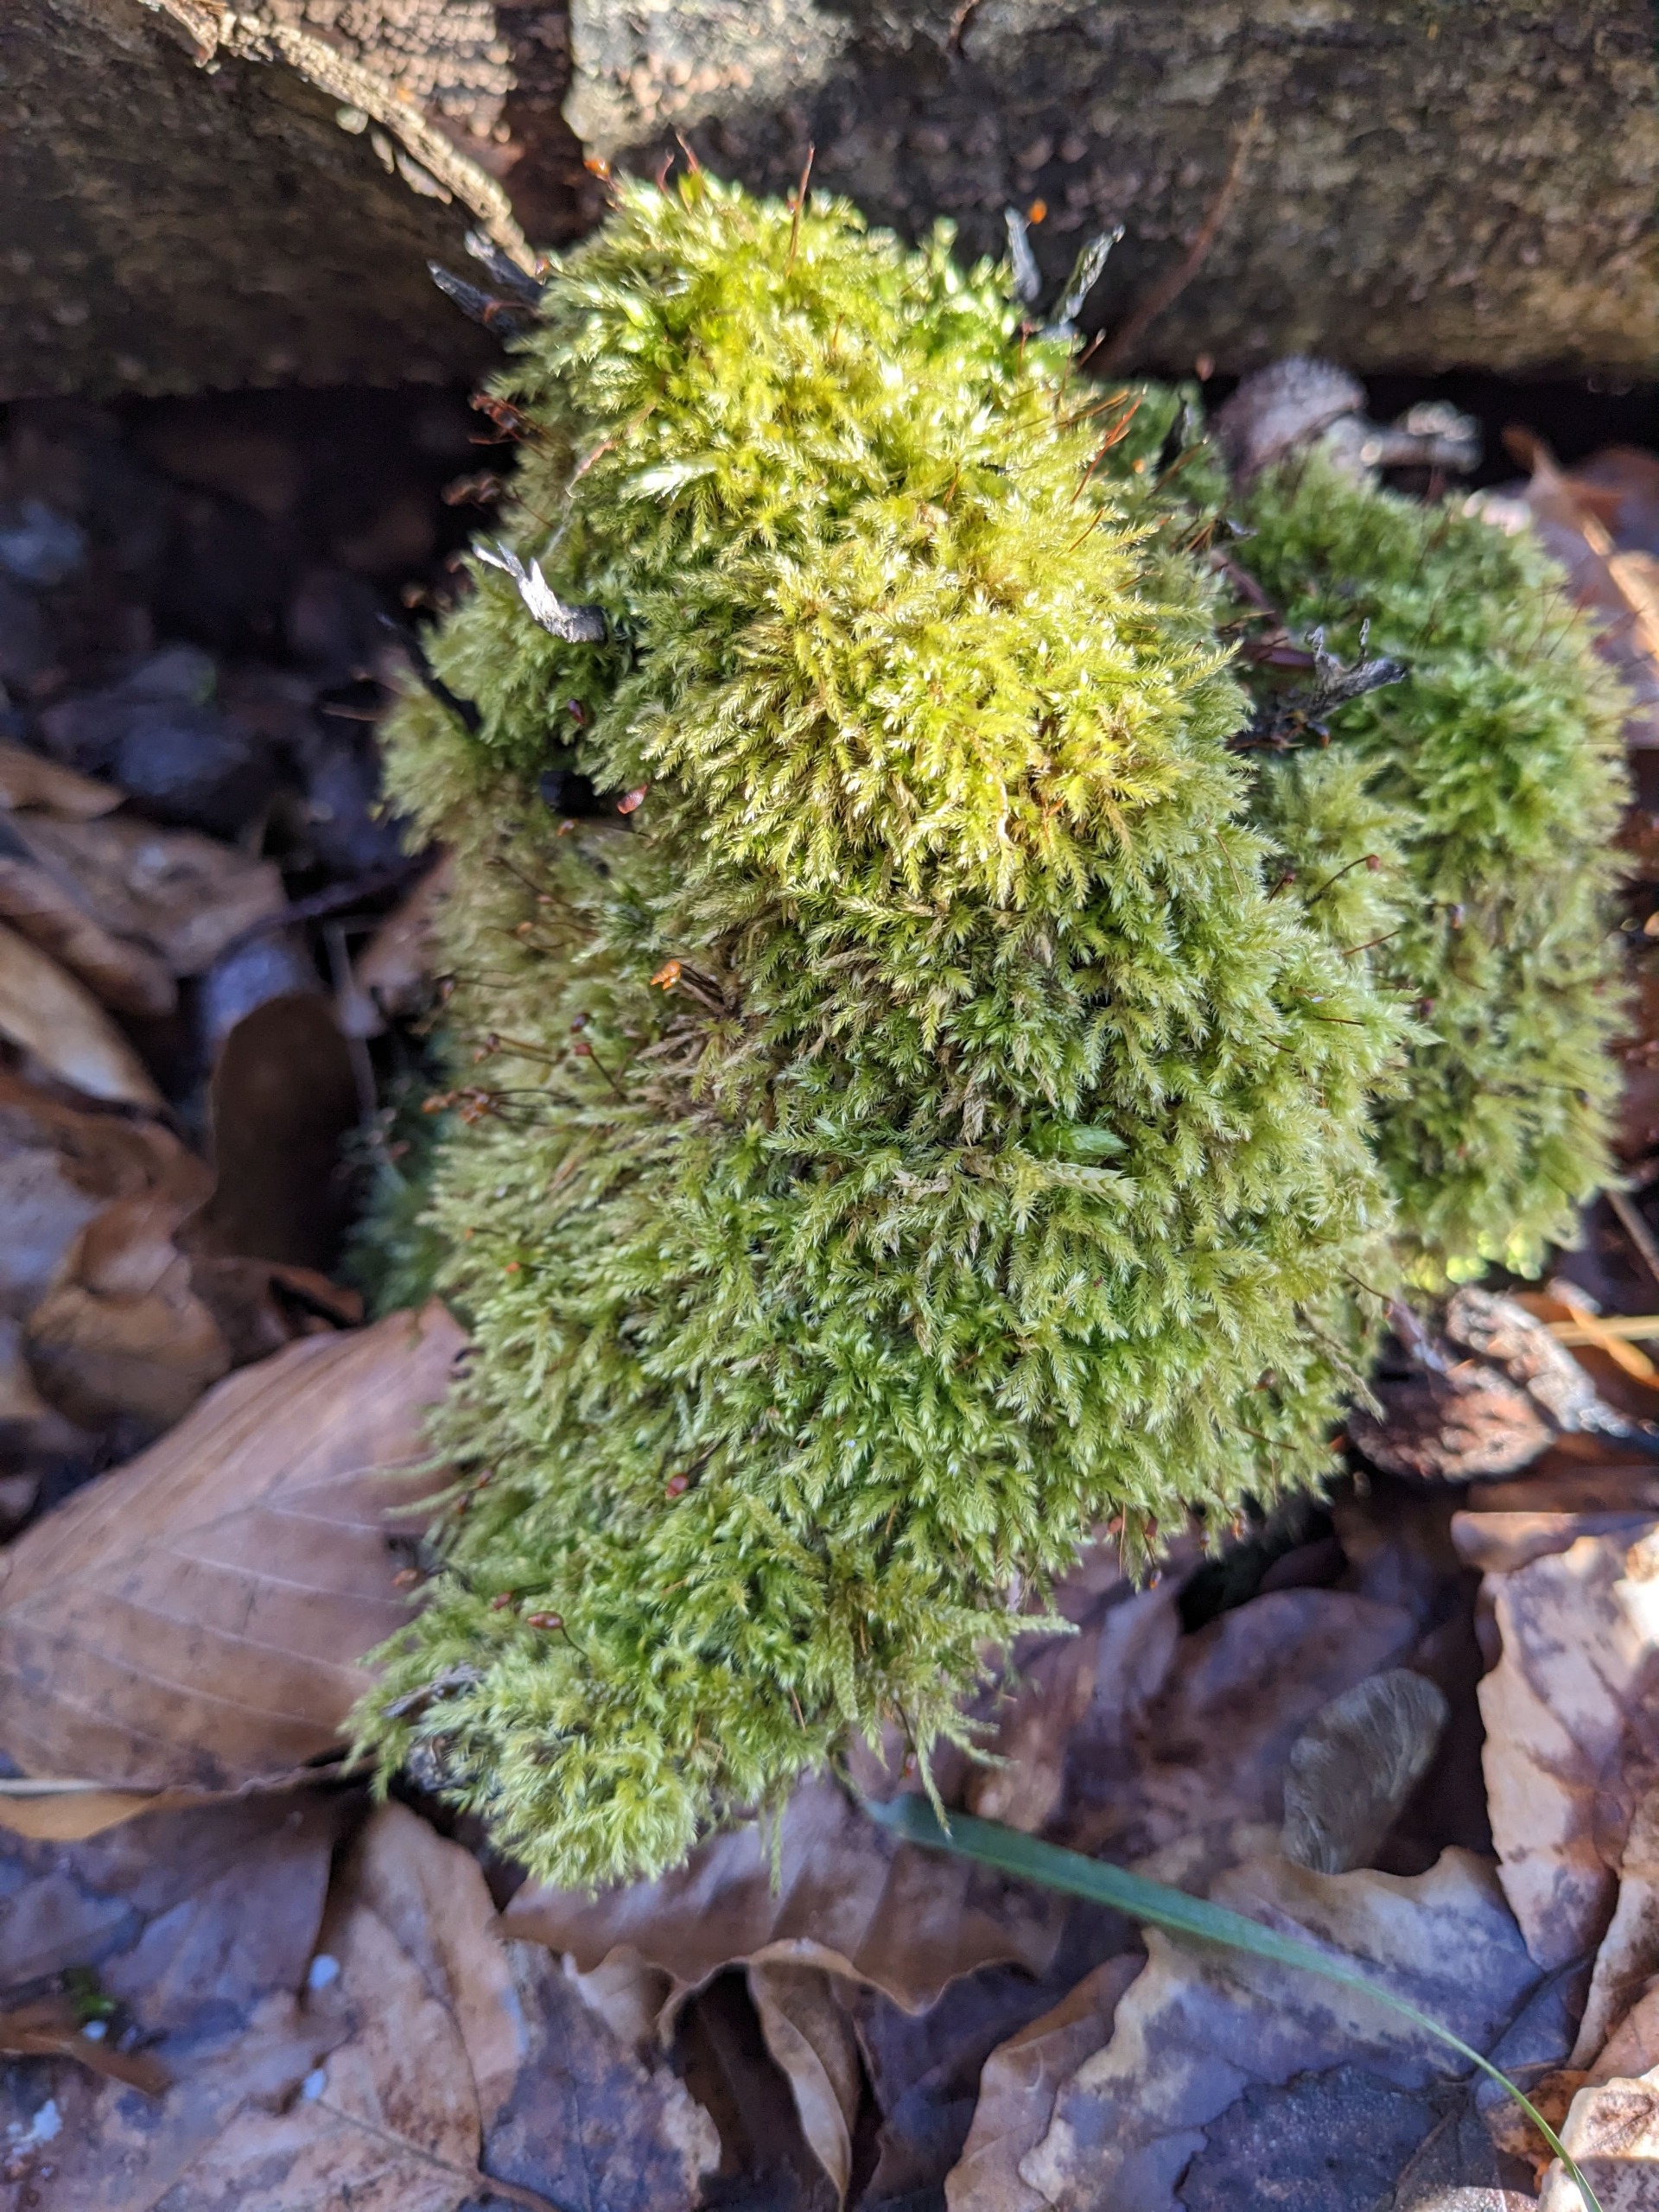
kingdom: Plantae
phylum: Bryophyta
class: Bryopsida
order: Hypnales
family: Brachytheciaceae
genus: Brachytheciastrum
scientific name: Brachytheciastrum velutinum
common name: Fløjls-kortkapsel
